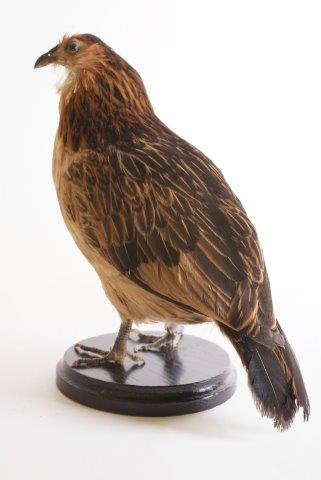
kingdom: Animalia
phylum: Chordata
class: Aves
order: Galliformes
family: Phasianidae
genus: Gallus
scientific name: Gallus gallus
